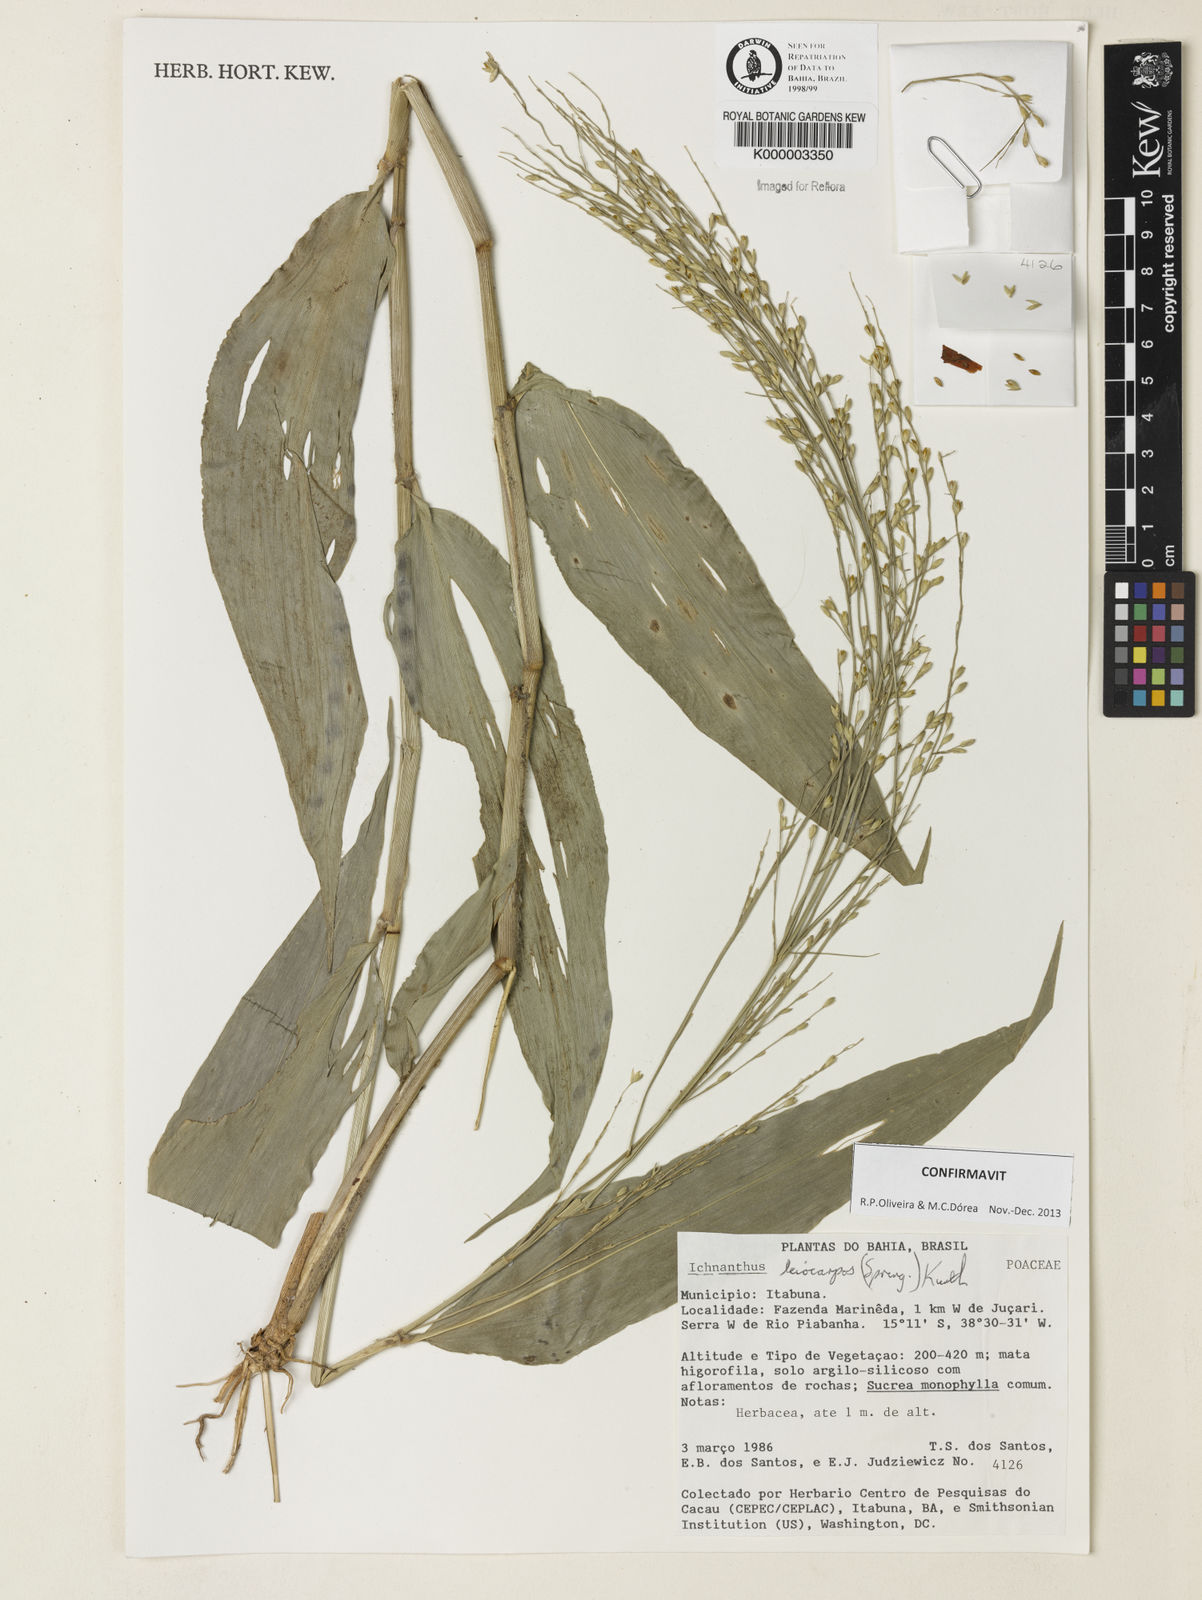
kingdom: Plantae
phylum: Tracheophyta
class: Liliopsida
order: Poales
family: Poaceae
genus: Ichnanthus
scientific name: Ichnanthus leiocarpus
